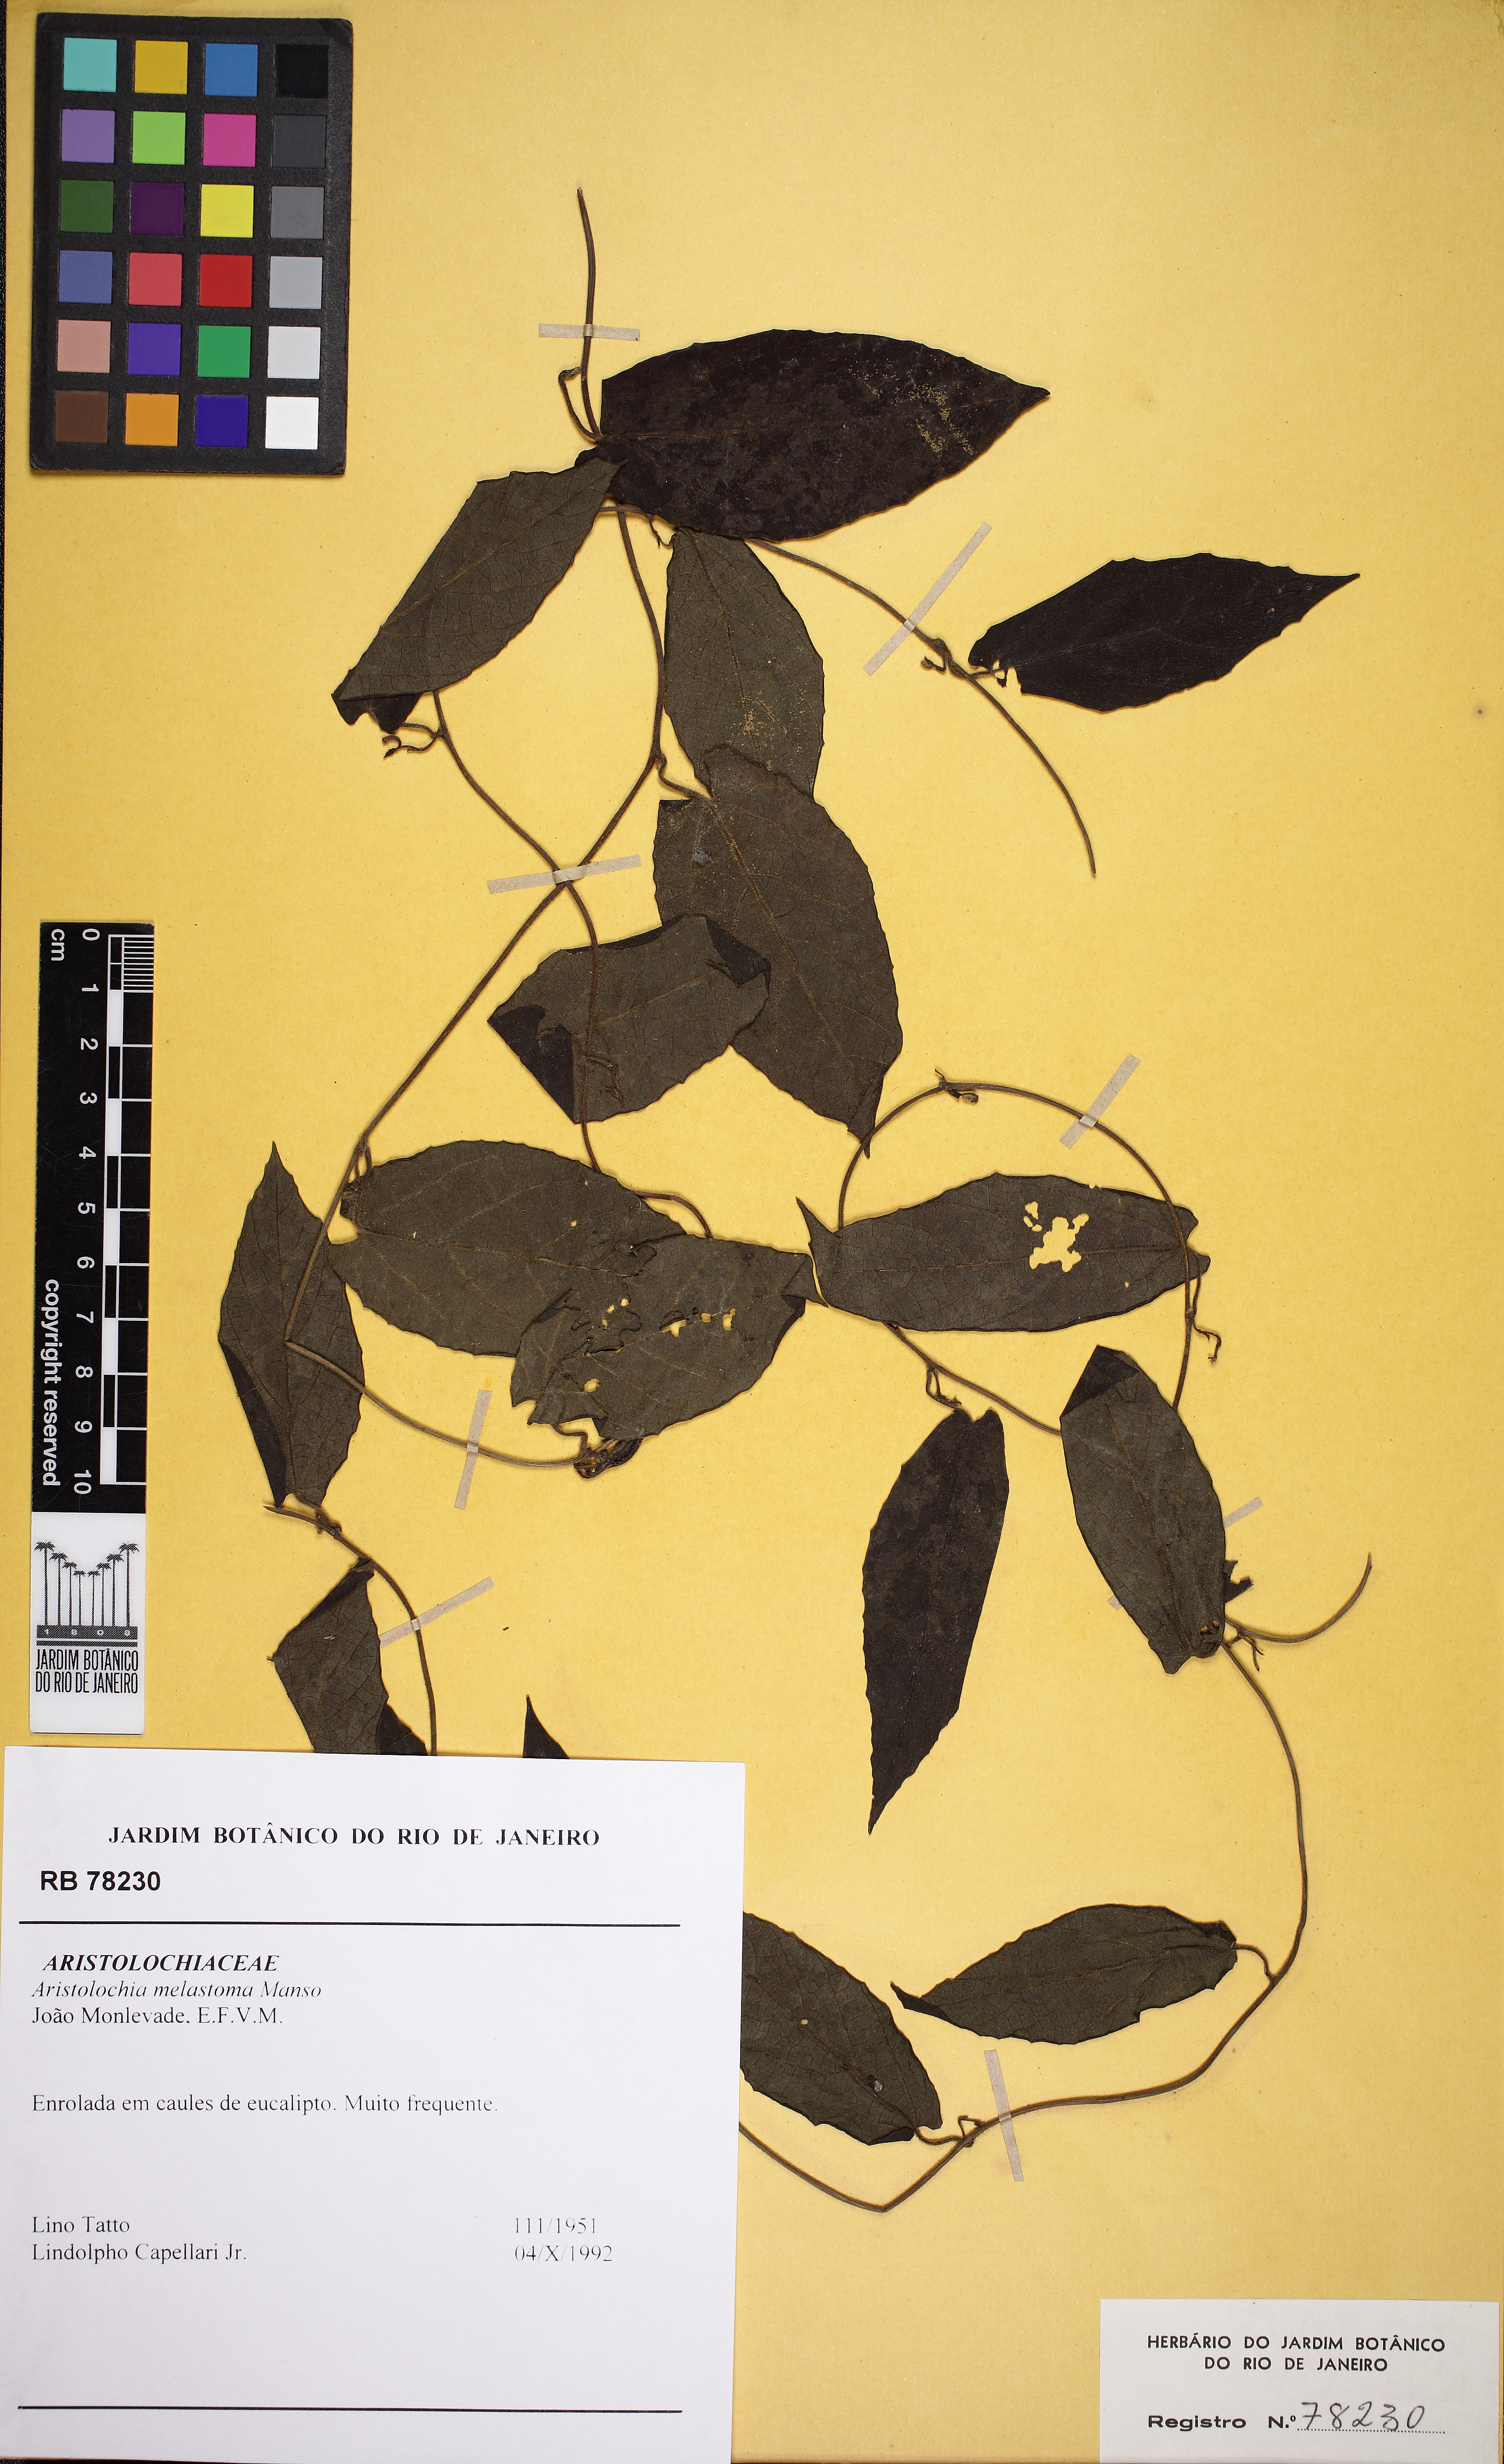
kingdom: Plantae
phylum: Tracheophyta
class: Magnoliopsida
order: Piperales
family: Aristolochiaceae
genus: Aristolochia
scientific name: Aristolochia melastoma
